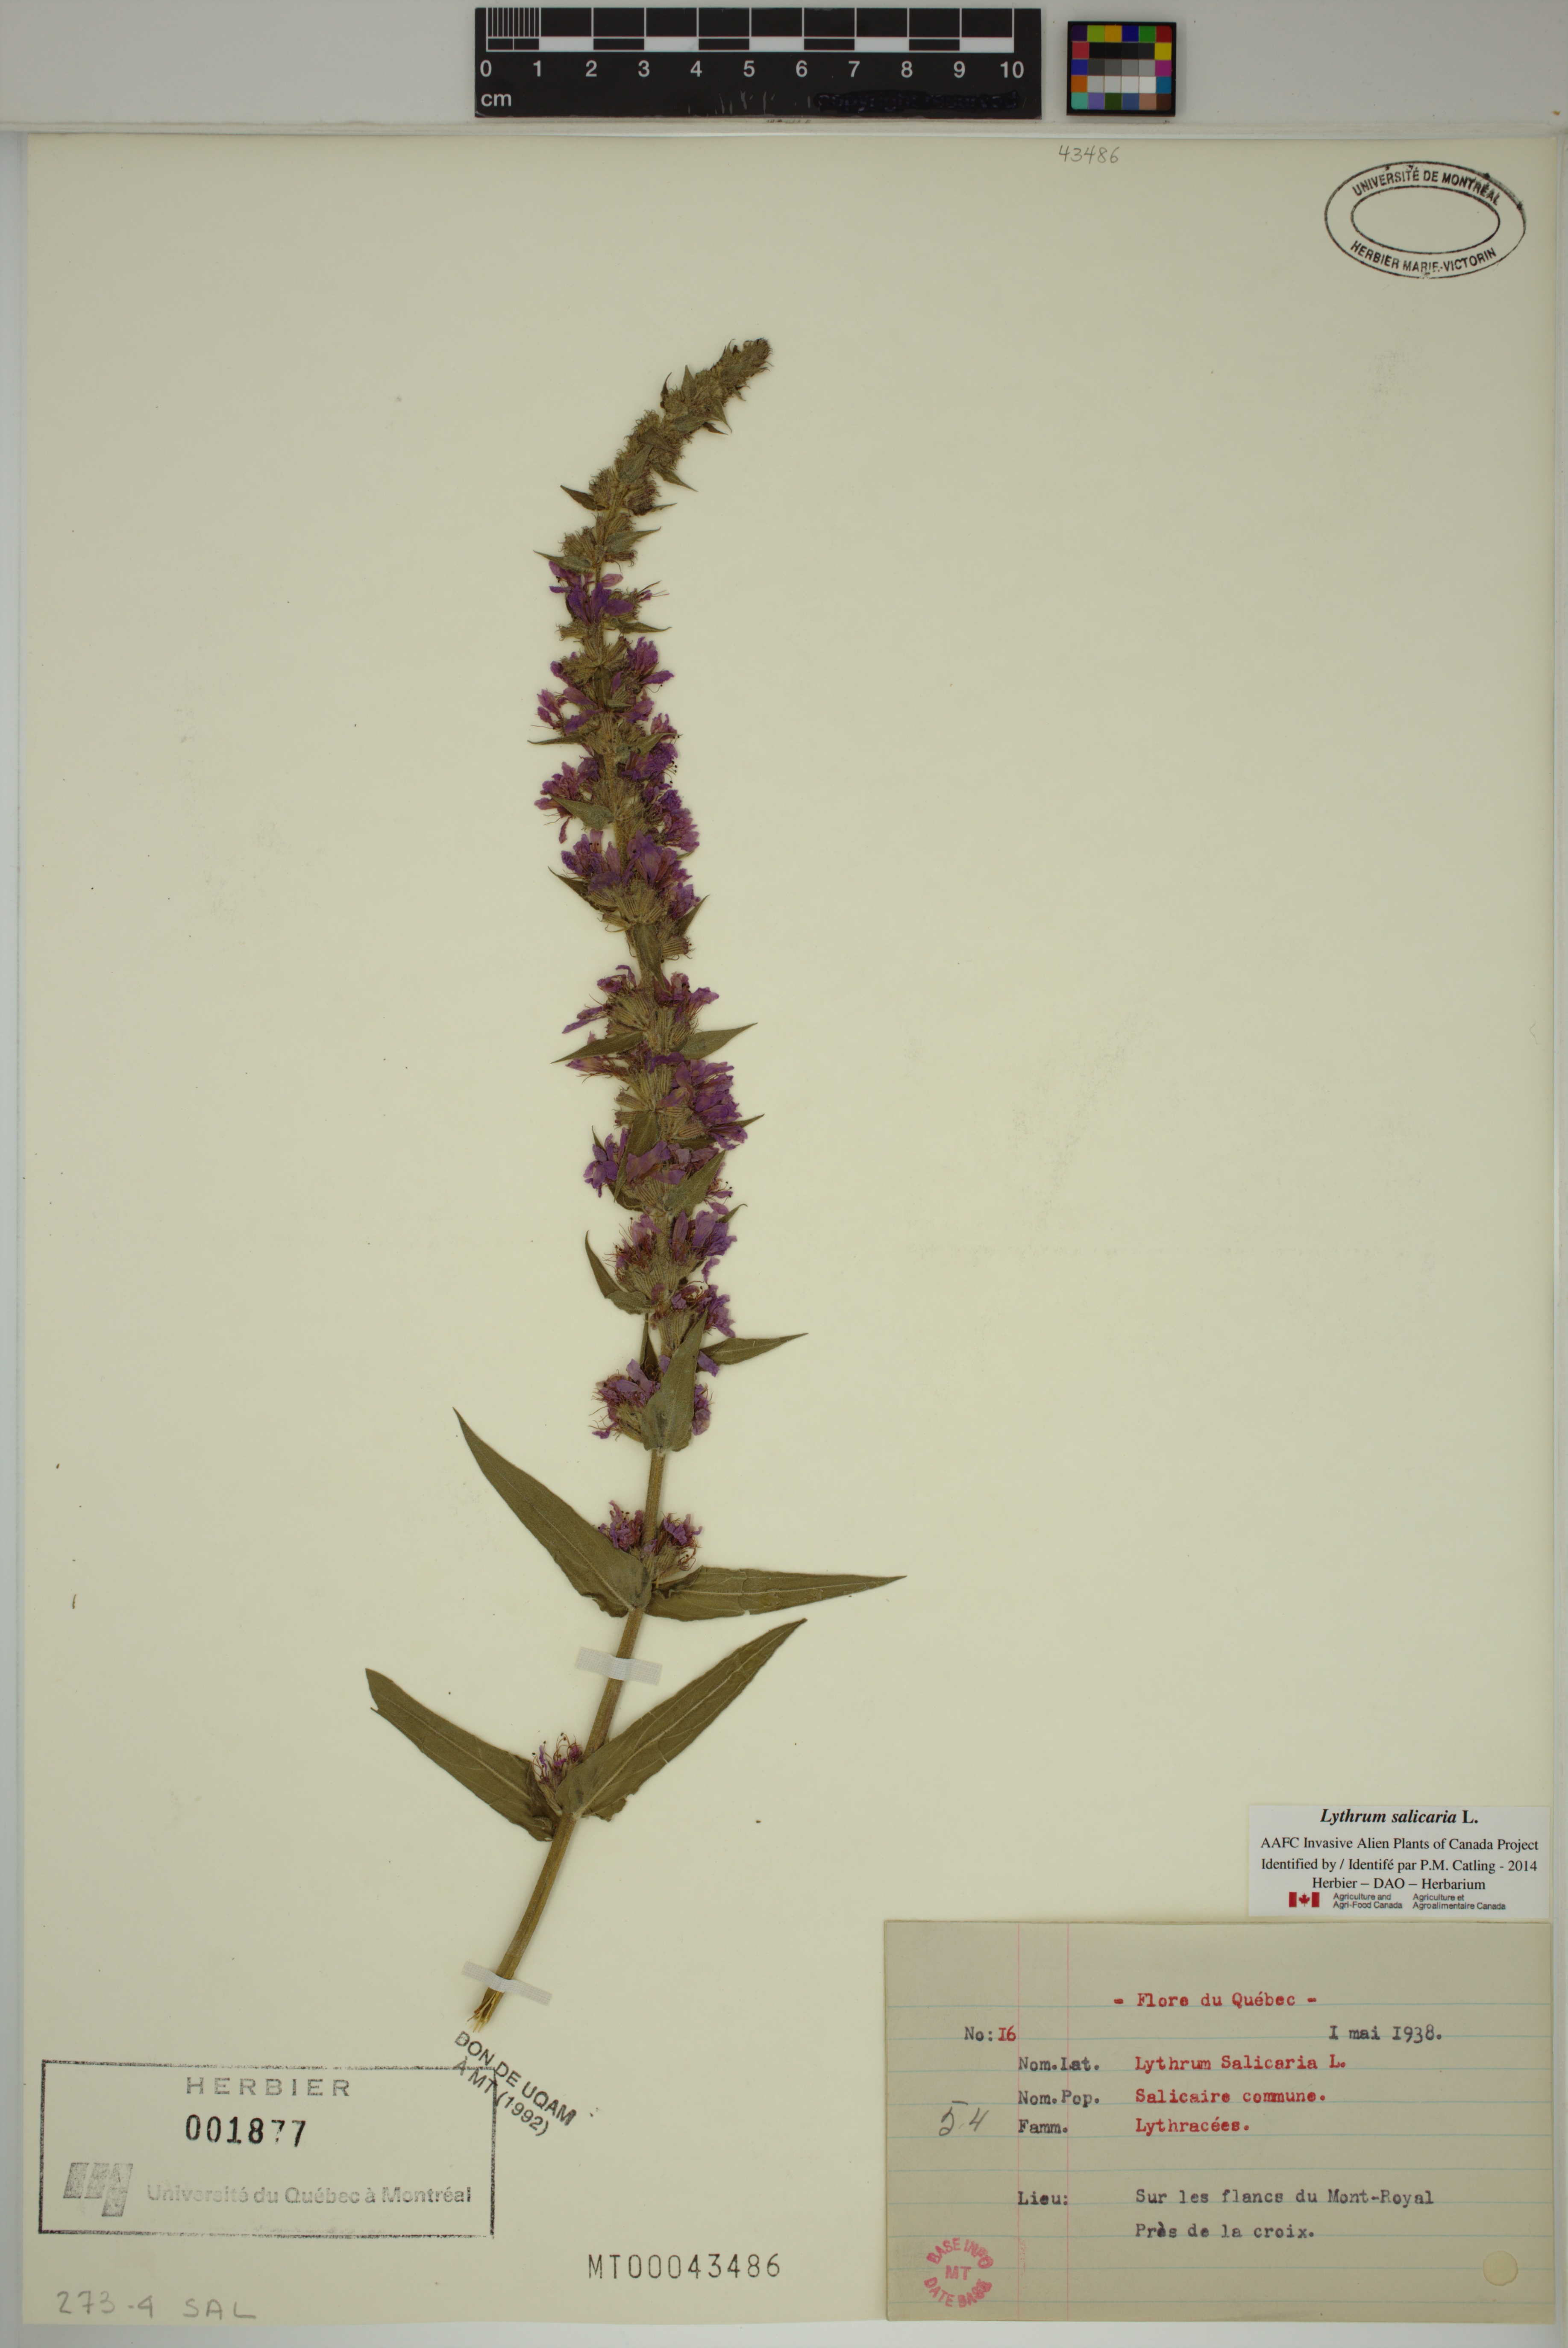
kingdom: Plantae
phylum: Tracheophyta
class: Magnoliopsida
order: Myrtales
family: Lythraceae
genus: Lythrum
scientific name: Lythrum salicaria
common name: Purple loosestrife
